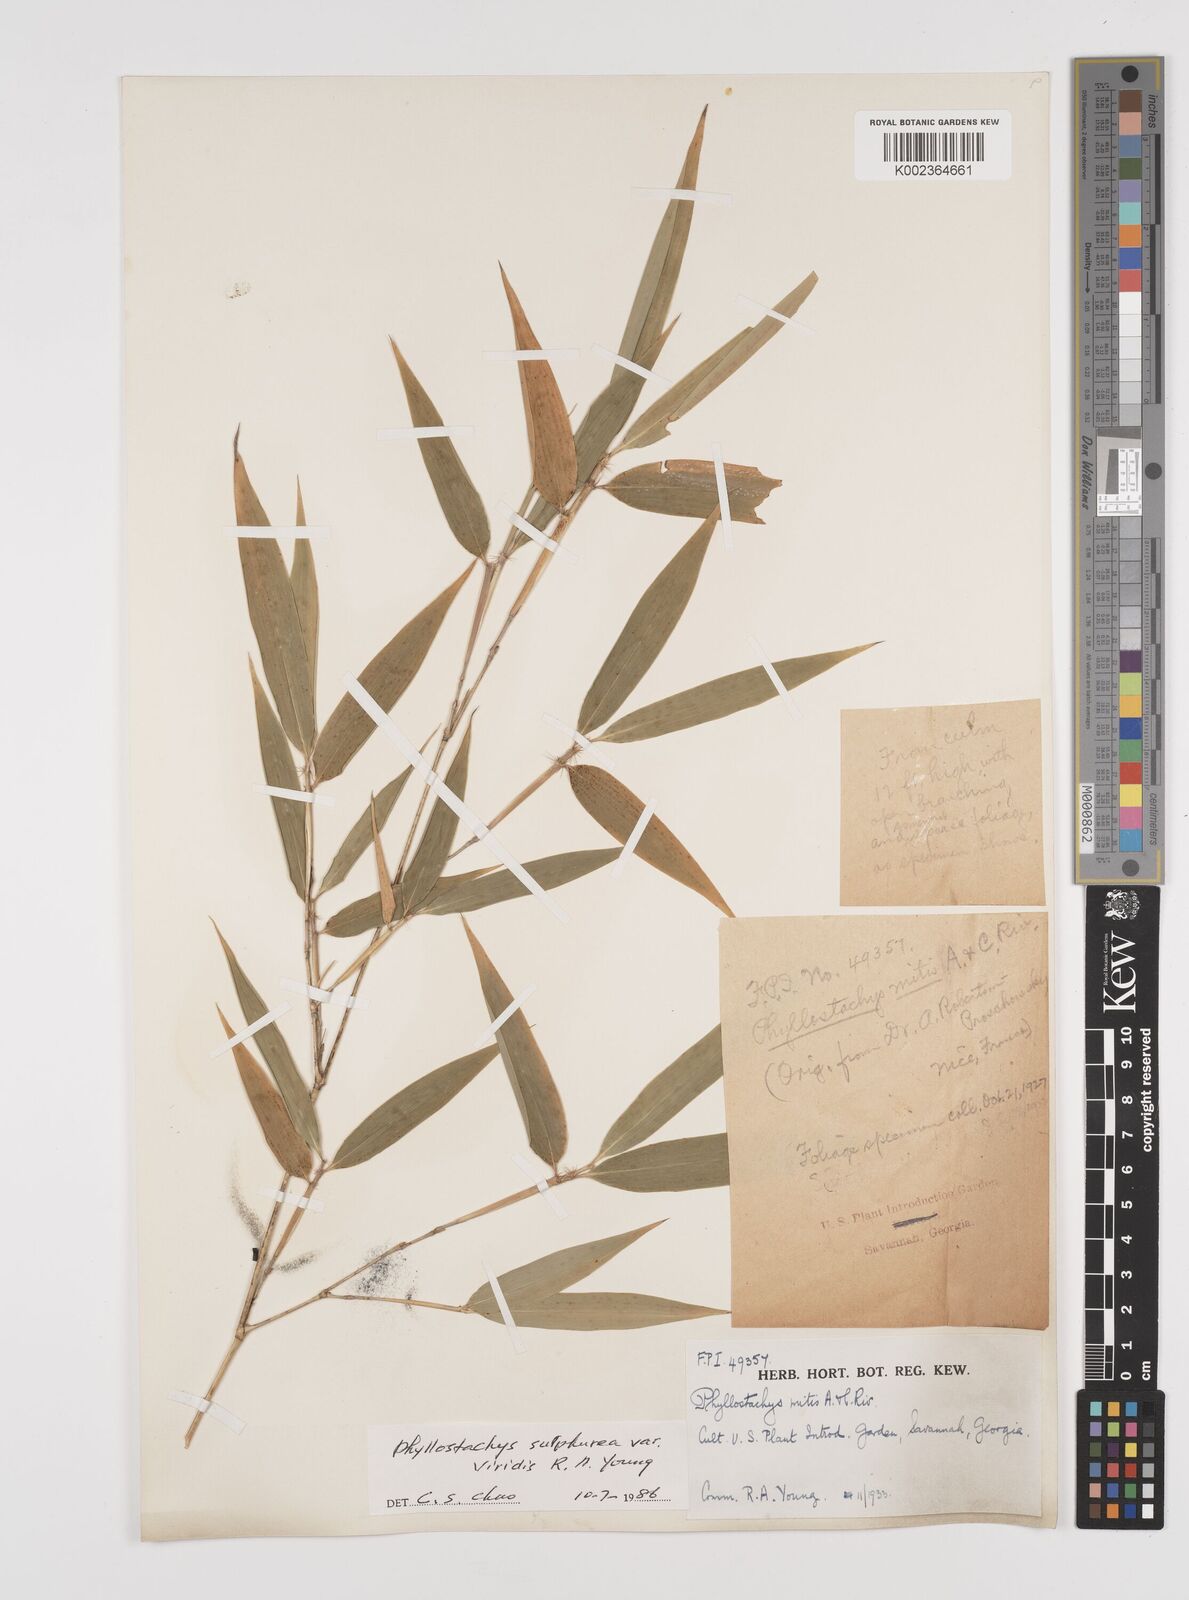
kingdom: Plantae
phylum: Tracheophyta
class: Liliopsida
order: Poales
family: Poaceae
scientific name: Poaceae
